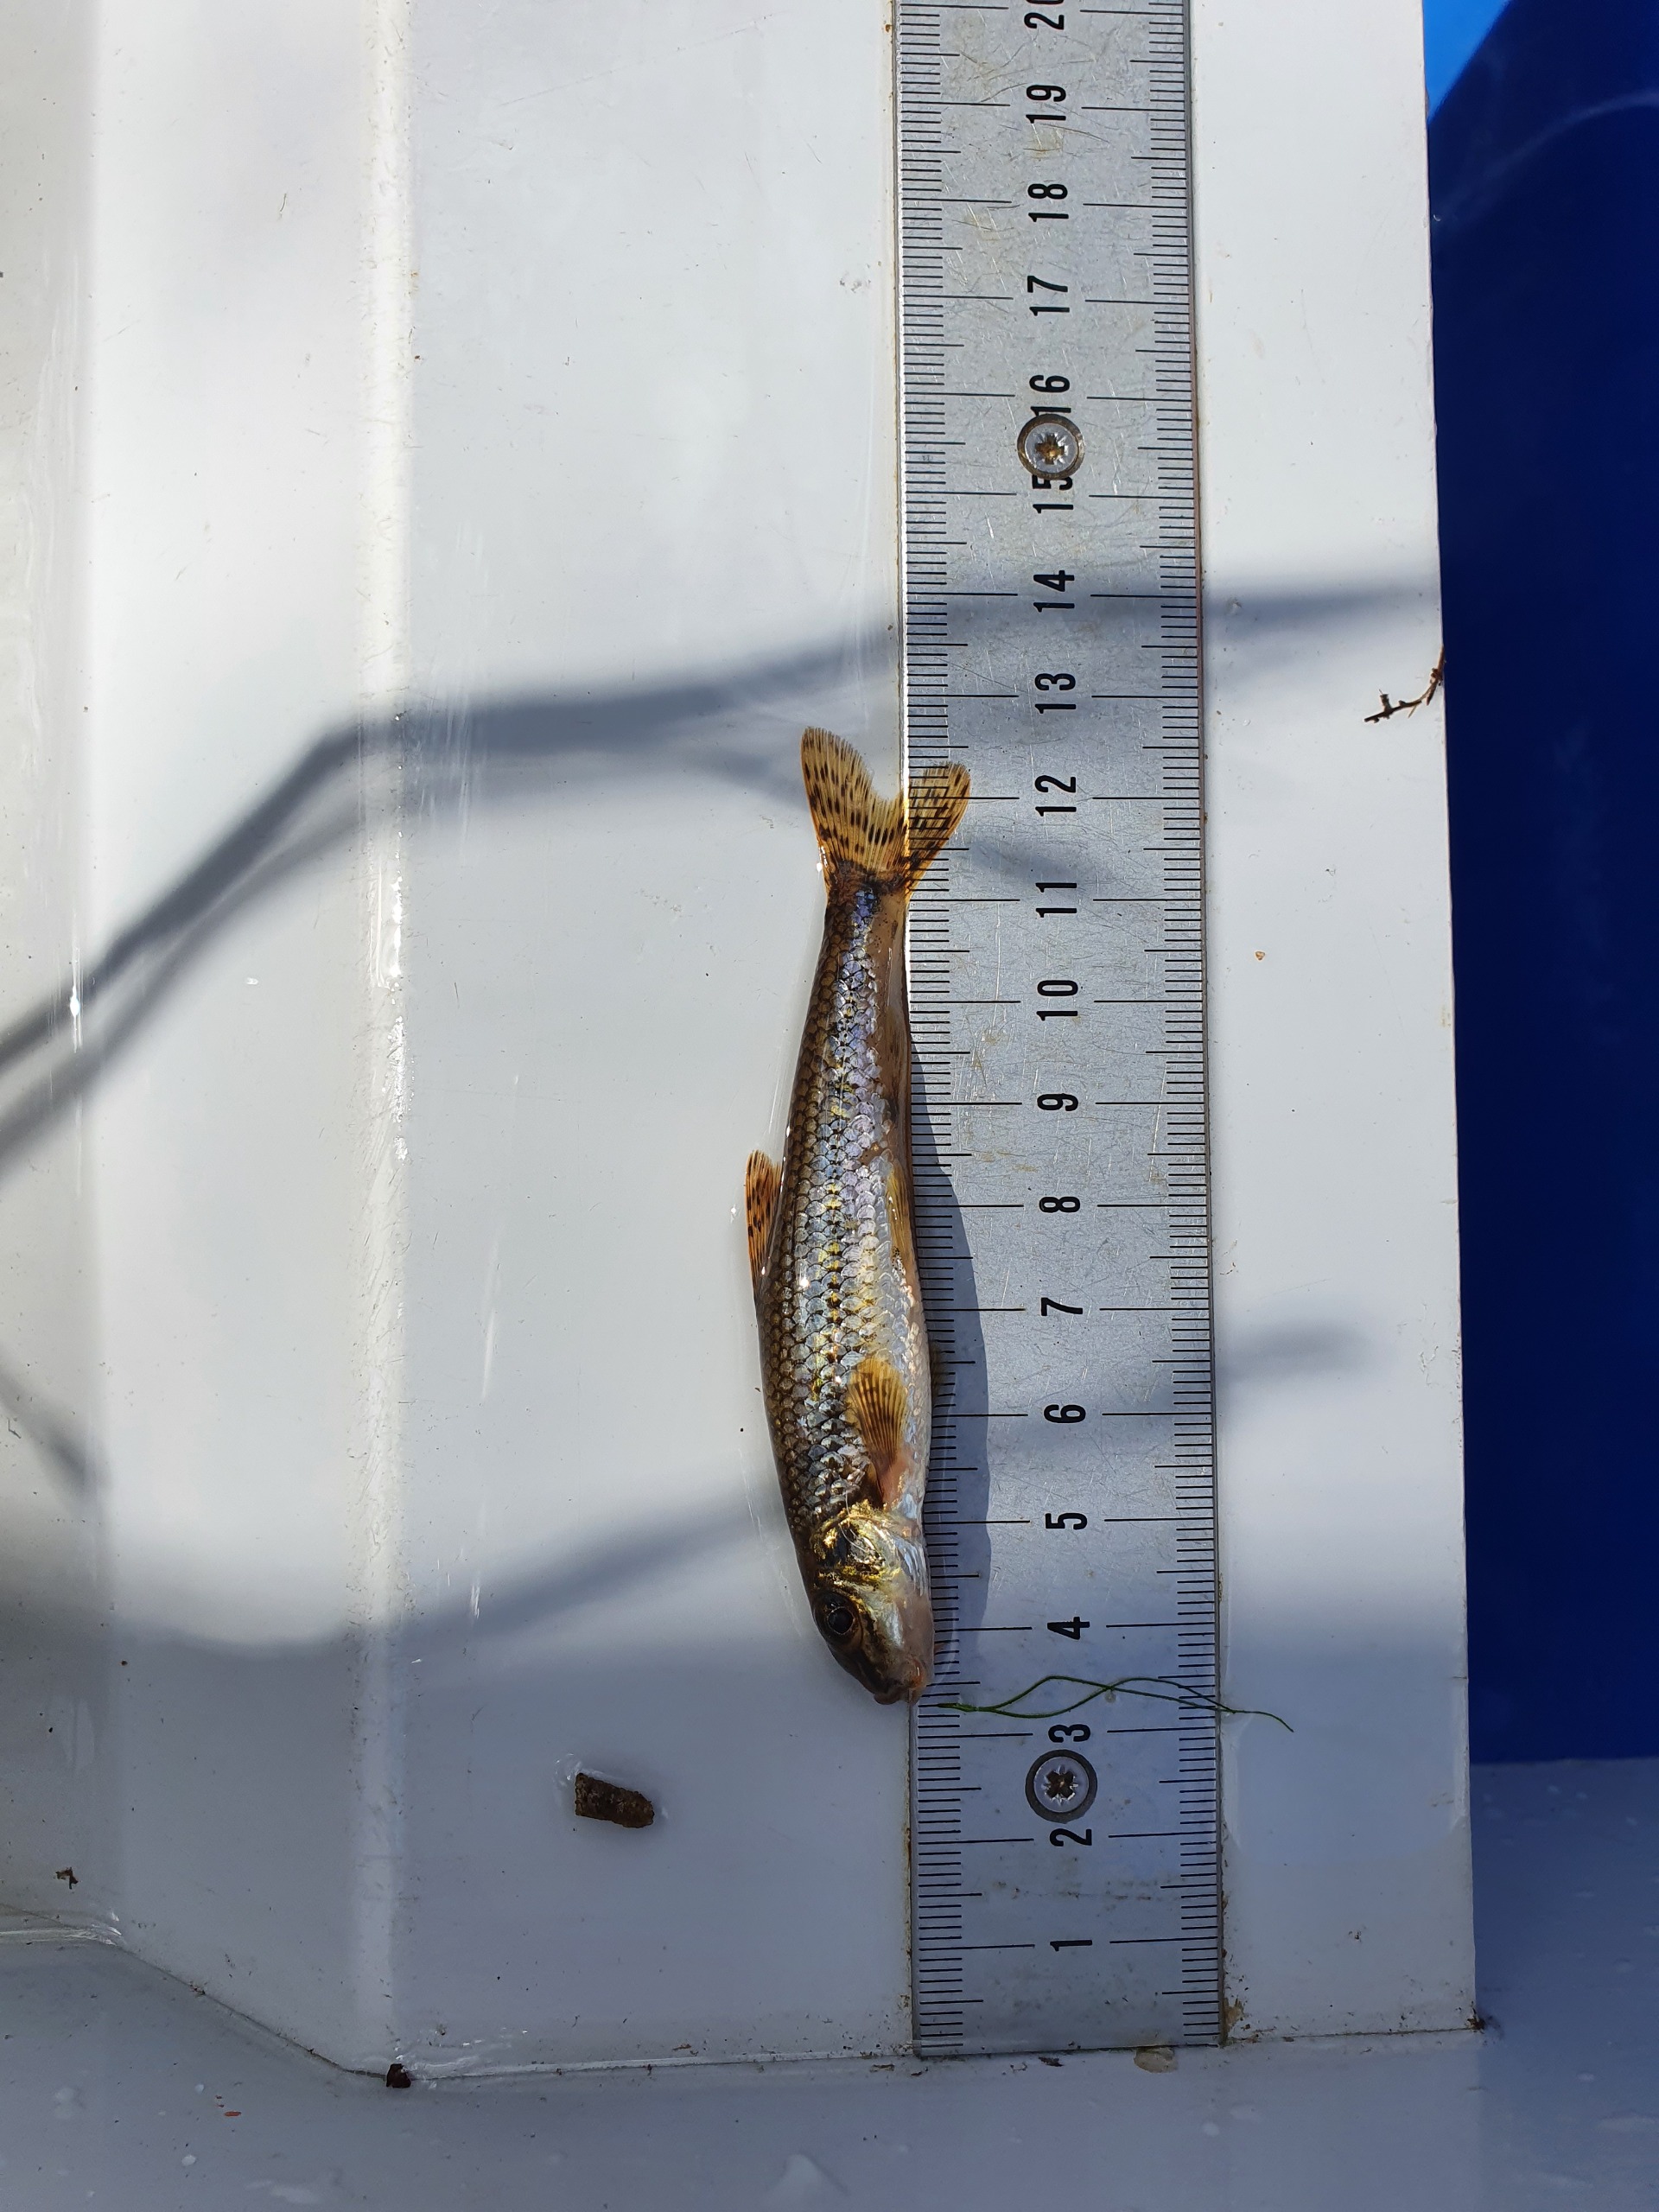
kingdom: Animalia
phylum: Chordata
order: Cypriniformes
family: Cyprinidae
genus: Gobio
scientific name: Gobio gobio
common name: Grundling
